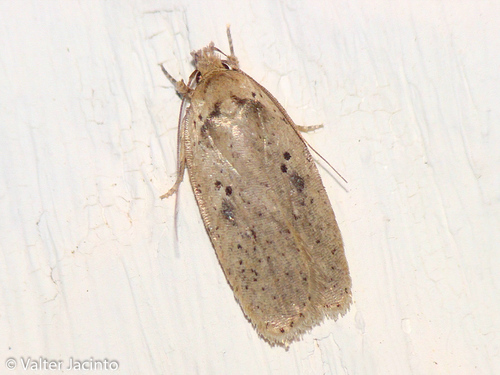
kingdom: Animalia
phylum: Arthropoda
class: Insecta
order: Lepidoptera
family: Depressariidae
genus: Agonopterix
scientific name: Agonopterix yeatiana
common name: Coastal flat-body
